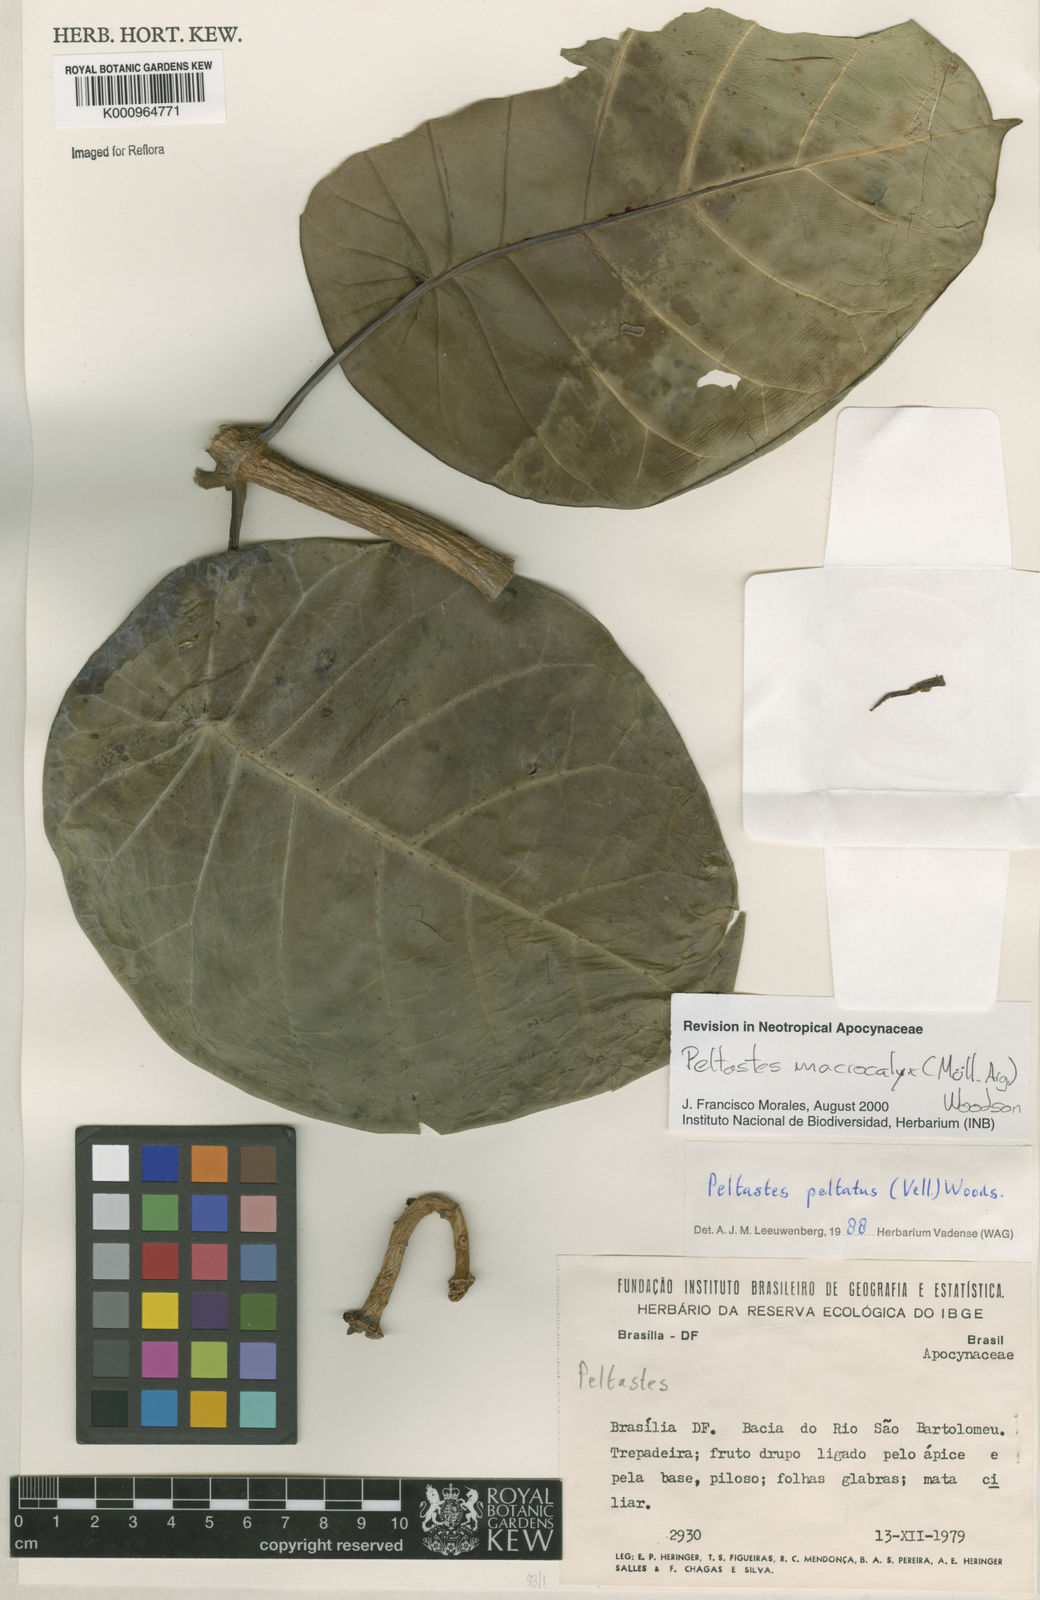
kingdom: Plantae
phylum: Tracheophyta
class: Magnoliopsida
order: Gentianales
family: Apocynaceae
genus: Macropharynx
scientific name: Macropharynx
